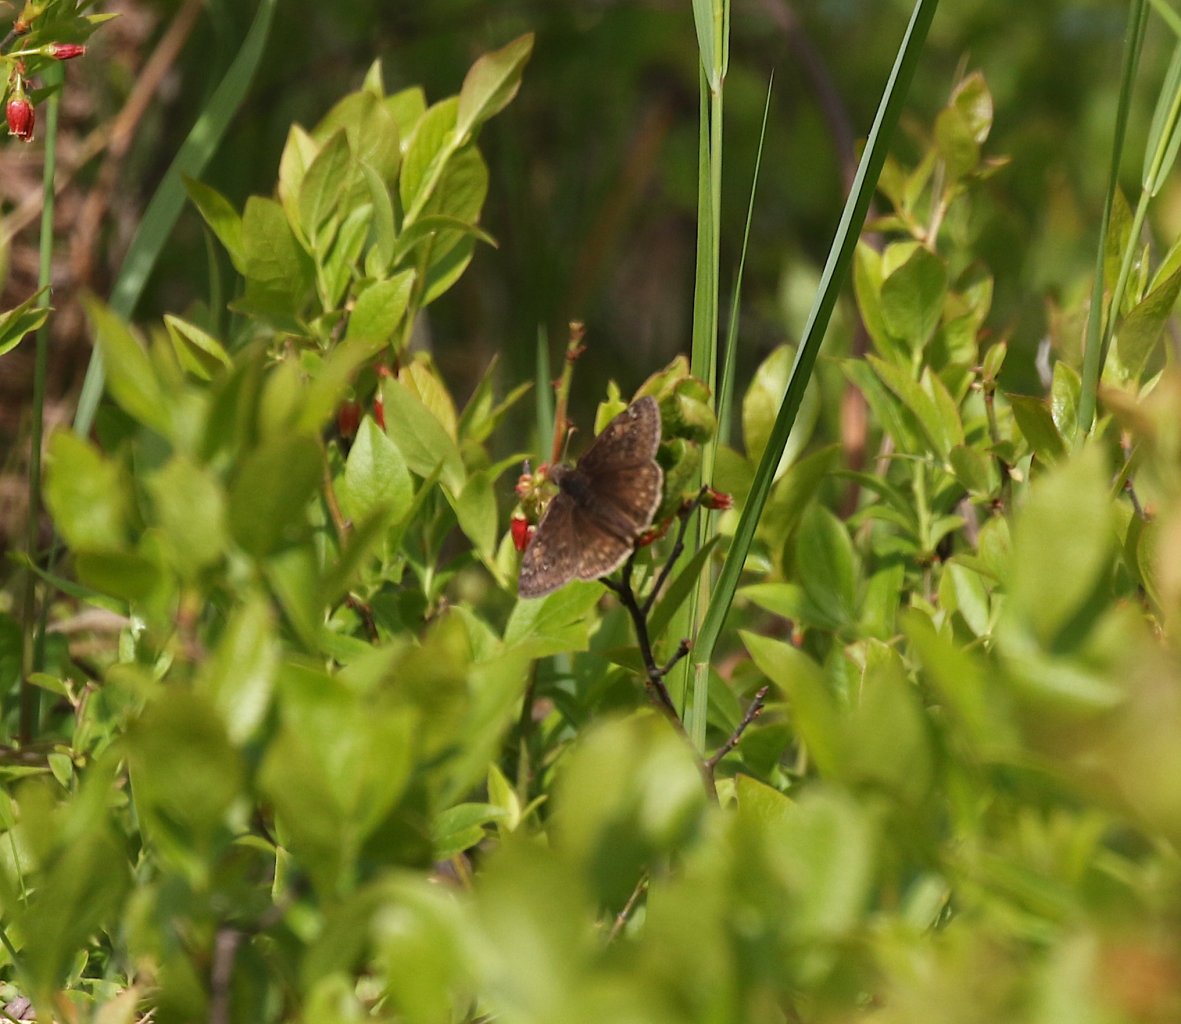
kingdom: Animalia
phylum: Arthropoda
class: Insecta
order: Lepidoptera
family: Hesperiidae
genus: Gesta
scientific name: Gesta
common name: Juvenal's Duskywing
